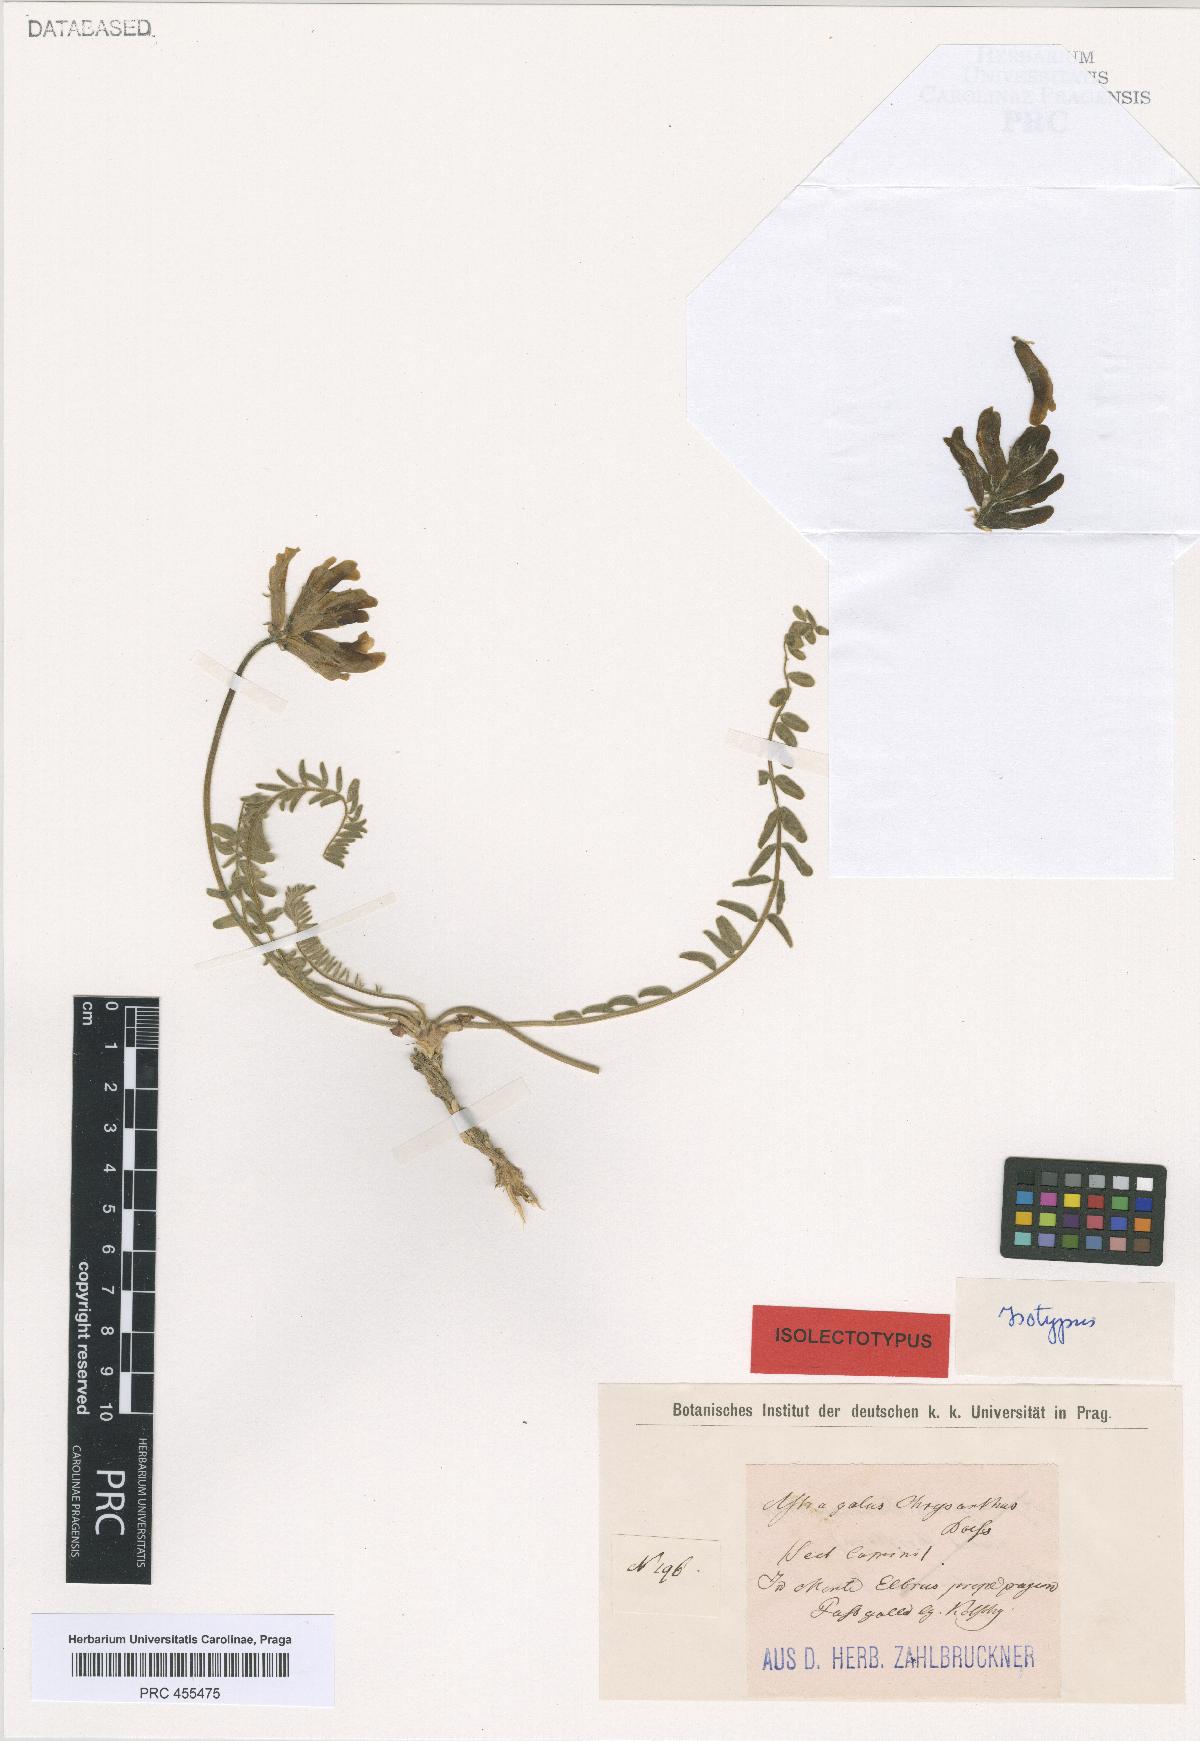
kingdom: Plantae
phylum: Tracheophyta
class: Magnoliopsida
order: Fabales
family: Fabaceae
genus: Astragalus
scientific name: Astragalus chrysanthus
